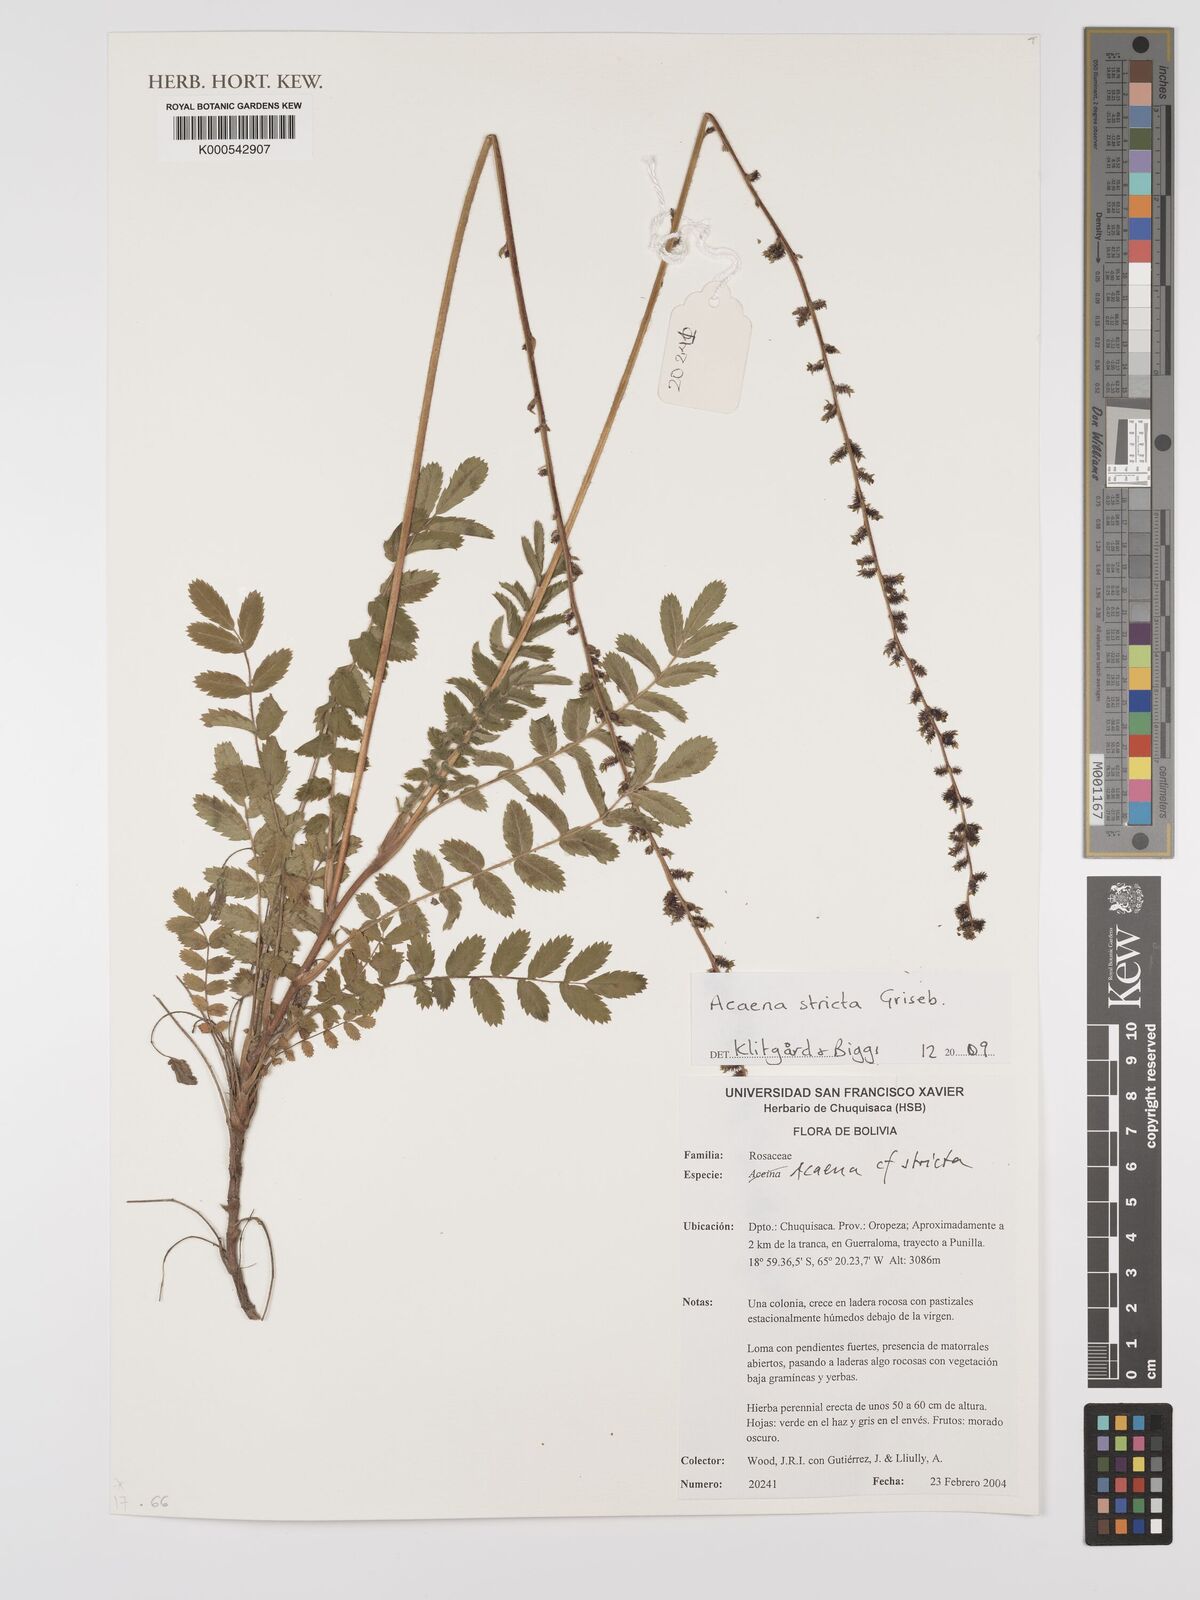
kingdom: Plantae
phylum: Tracheophyta
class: Magnoliopsida
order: Rosales
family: Rosaceae
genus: Acaena
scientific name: Acaena stricta
